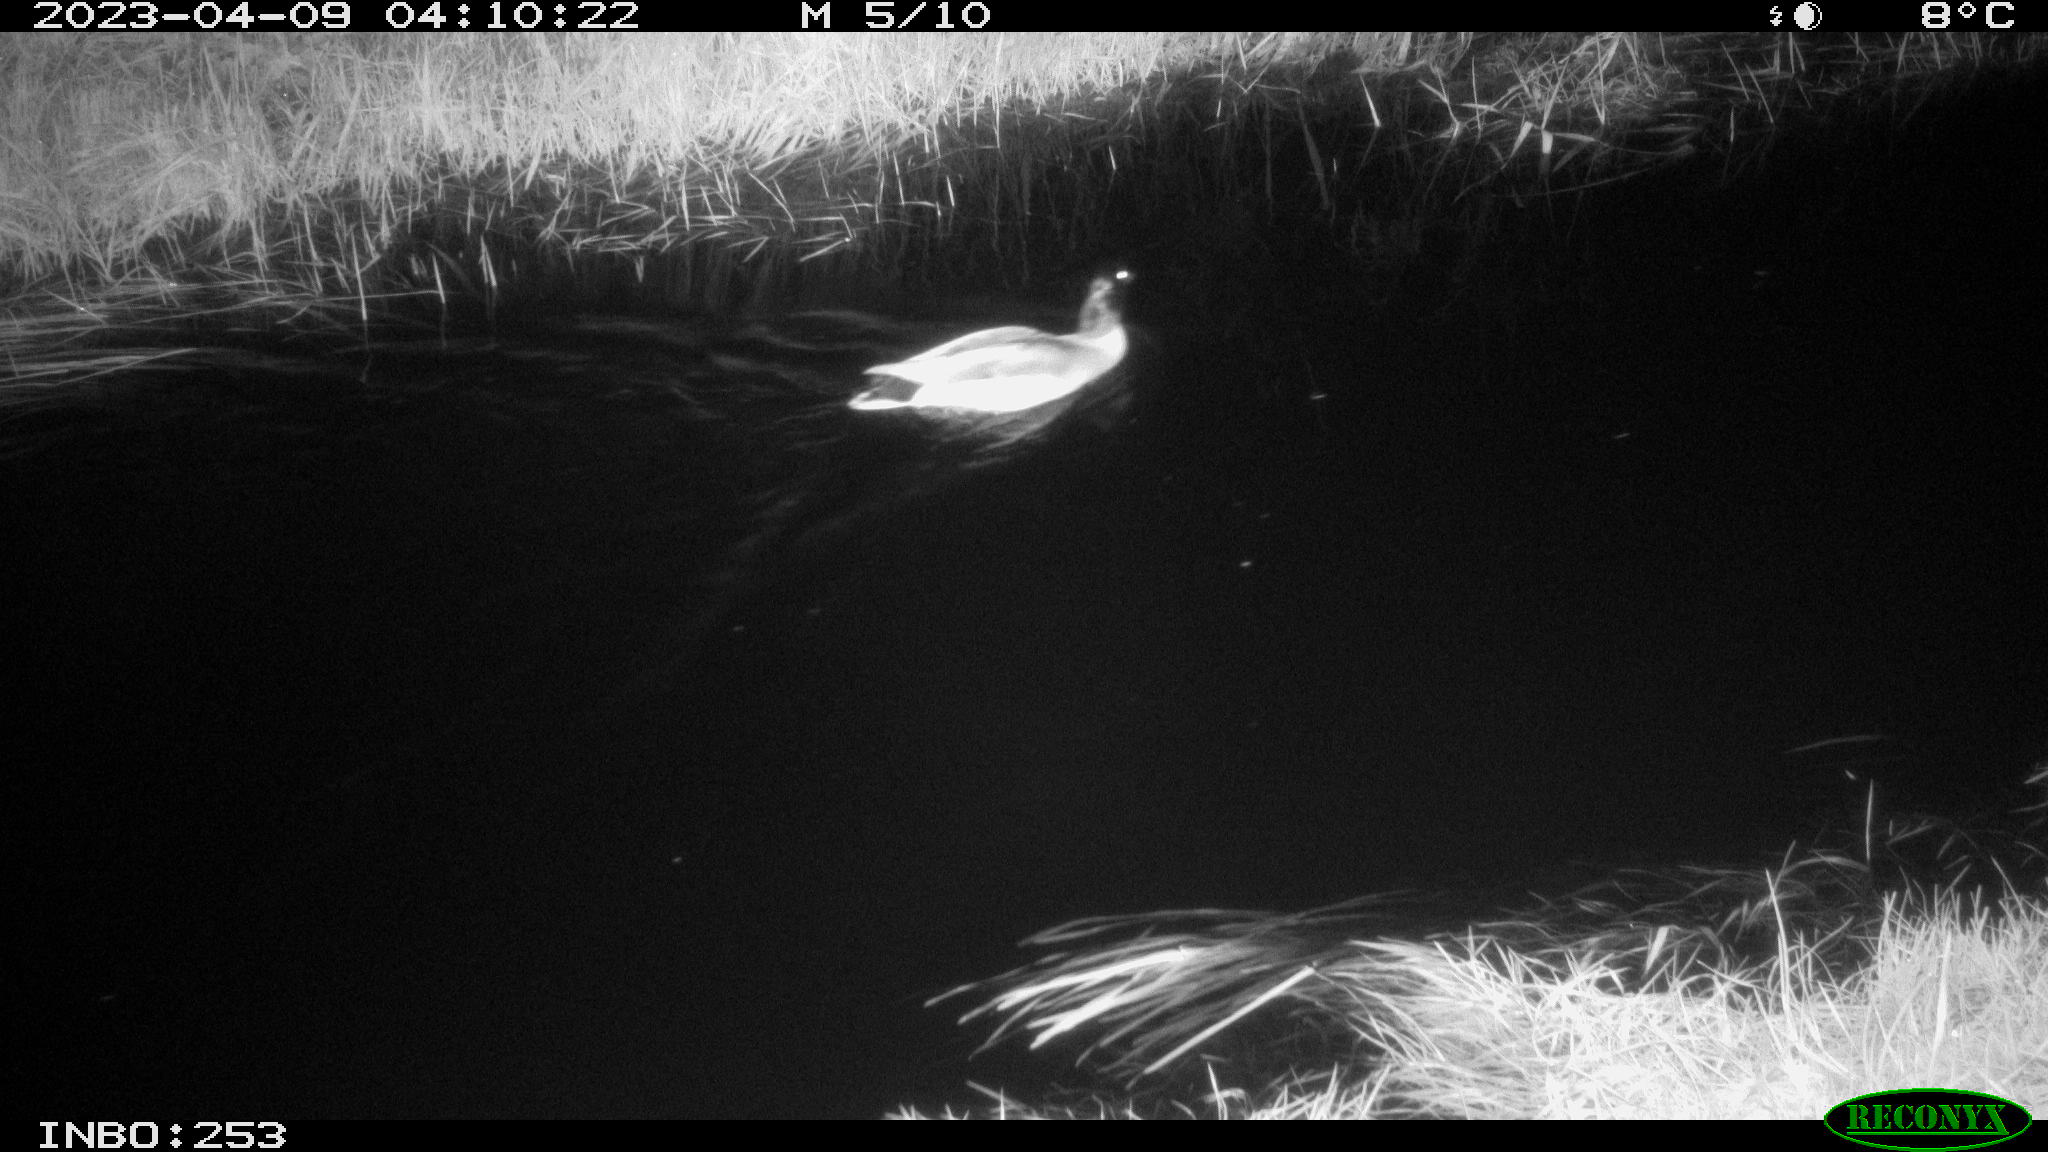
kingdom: Animalia
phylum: Chordata
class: Aves
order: Anseriformes
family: Anatidae
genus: Anas
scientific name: Anas
